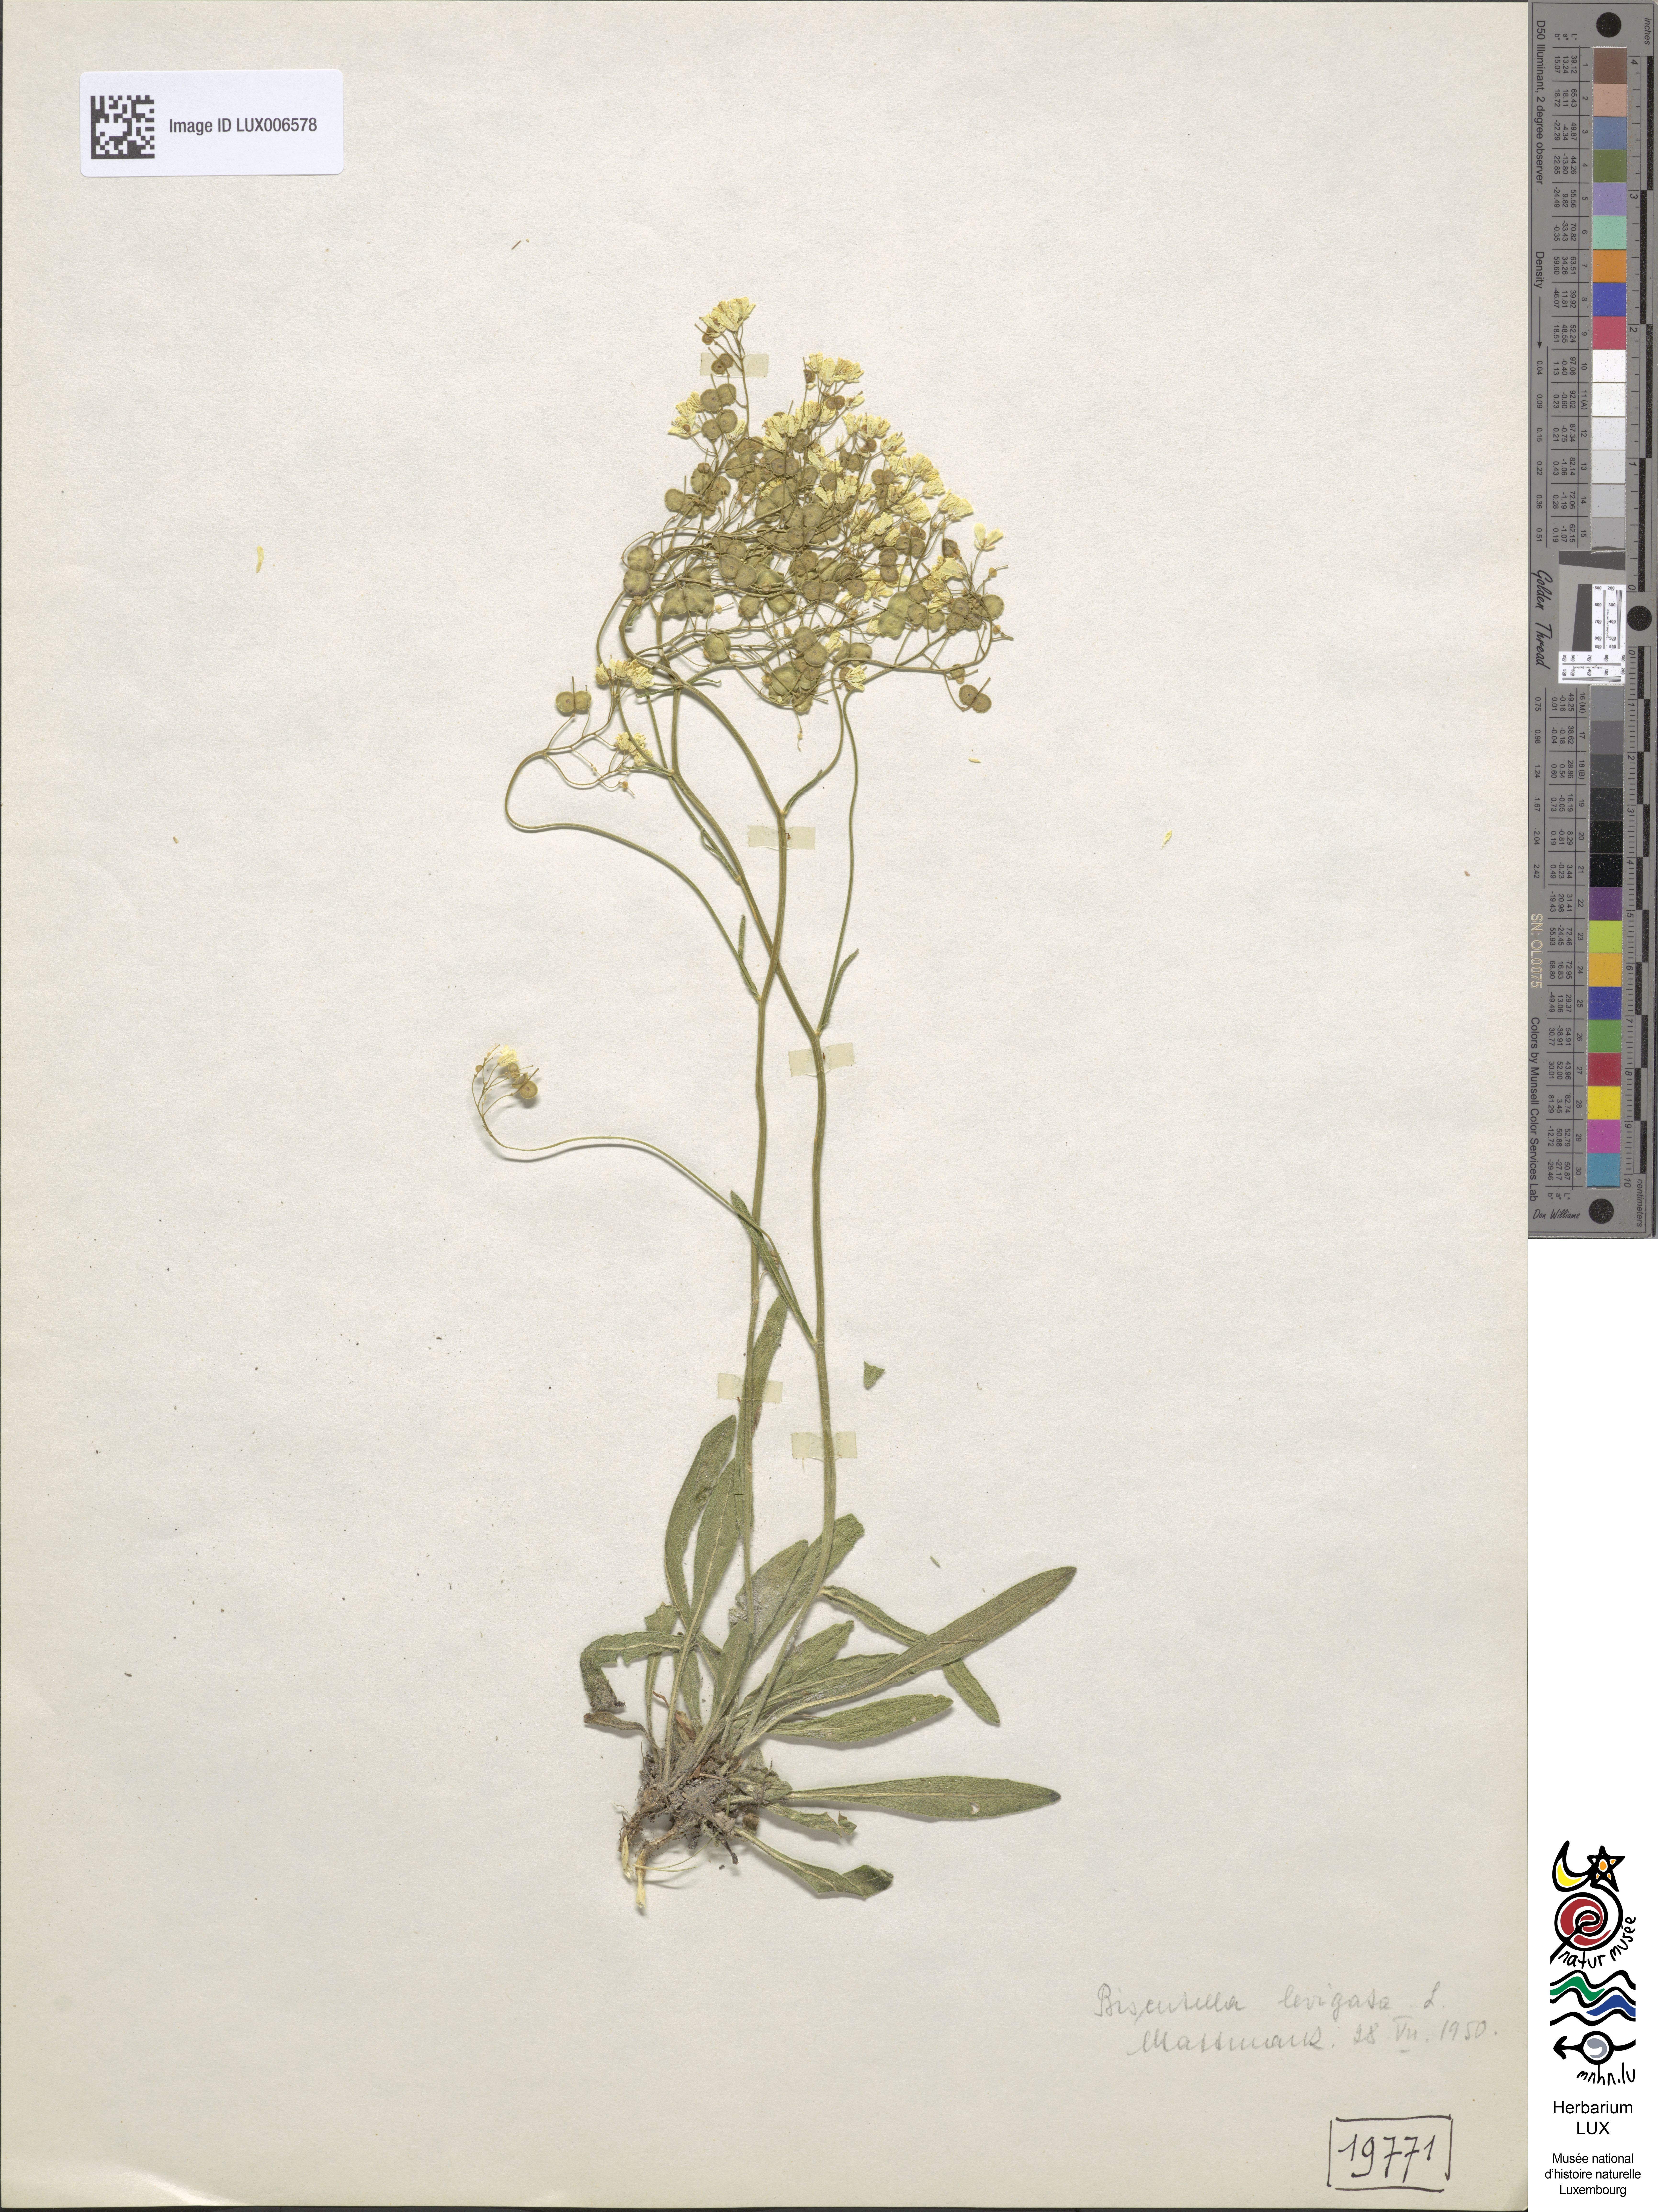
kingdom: Plantae
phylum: Tracheophyta
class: Magnoliopsida
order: Brassicales
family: Brassicaceae
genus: Biscutella
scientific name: Biscutella laevigata
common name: Buckler mustard
